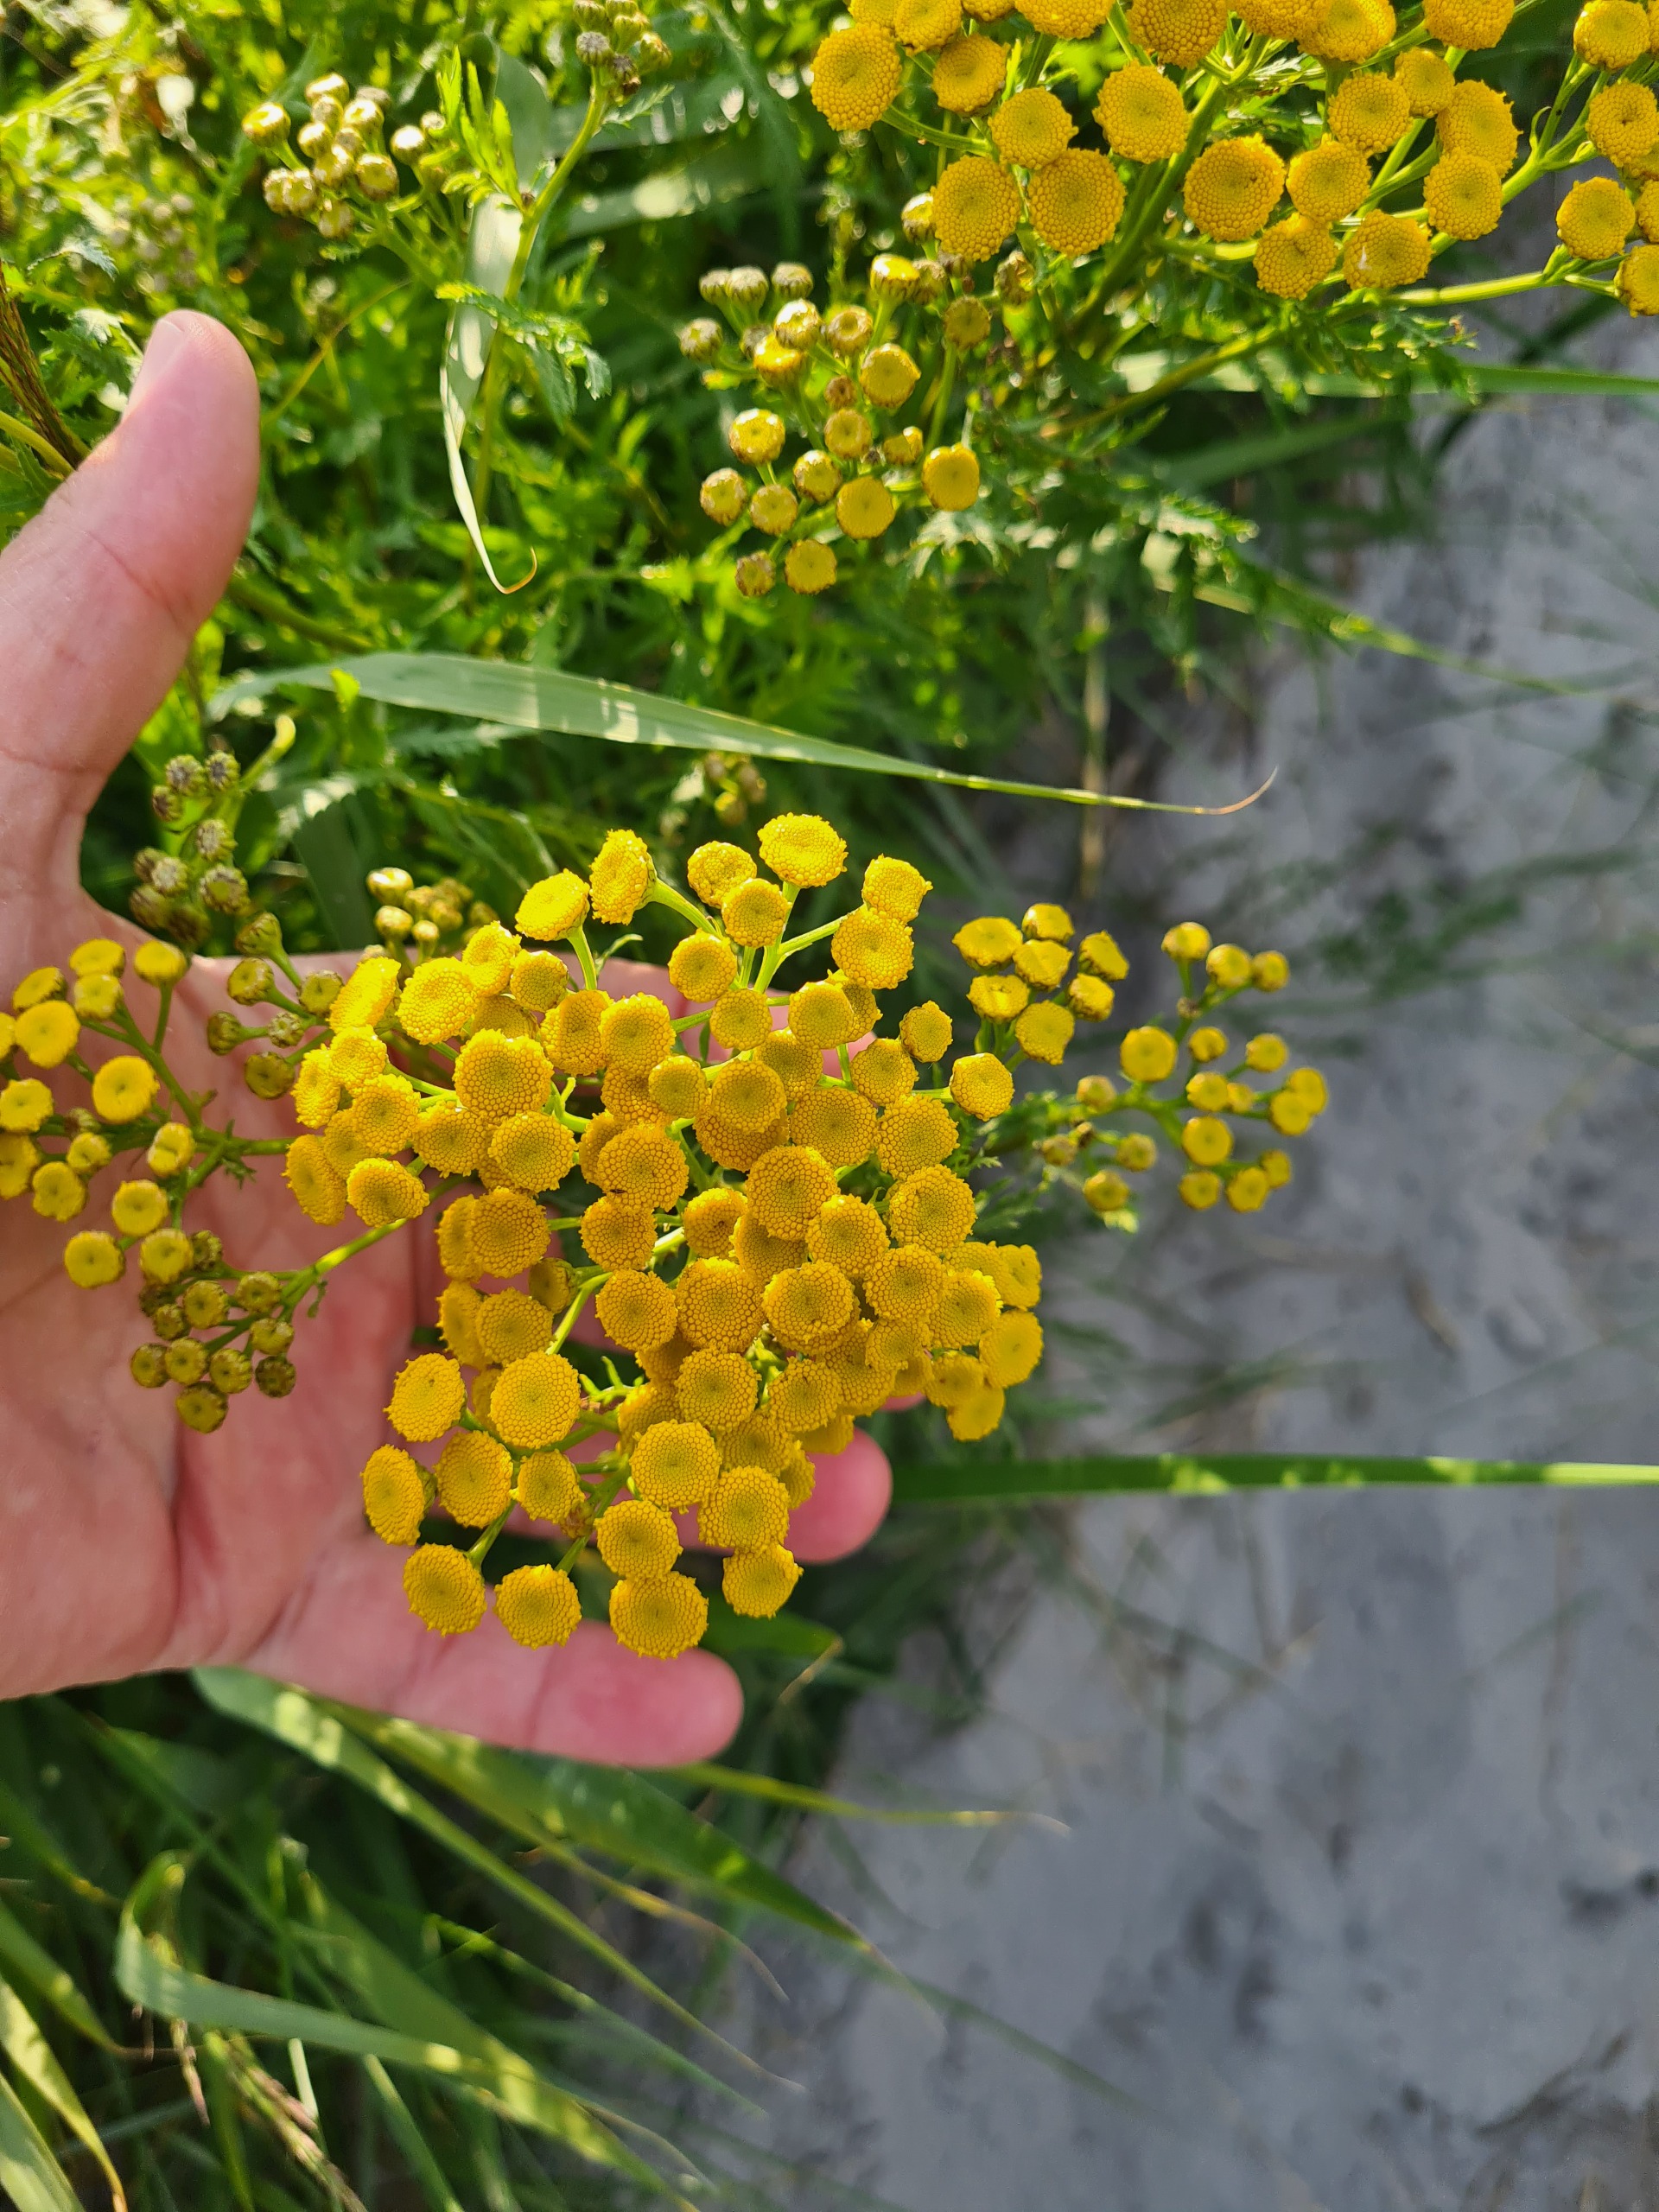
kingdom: Plantae
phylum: Tracheophyta
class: Magnoliopsida
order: Asterales
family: Asteraceae
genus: Tanacetum
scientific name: Tanacetum vulgare
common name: Rejnfan
